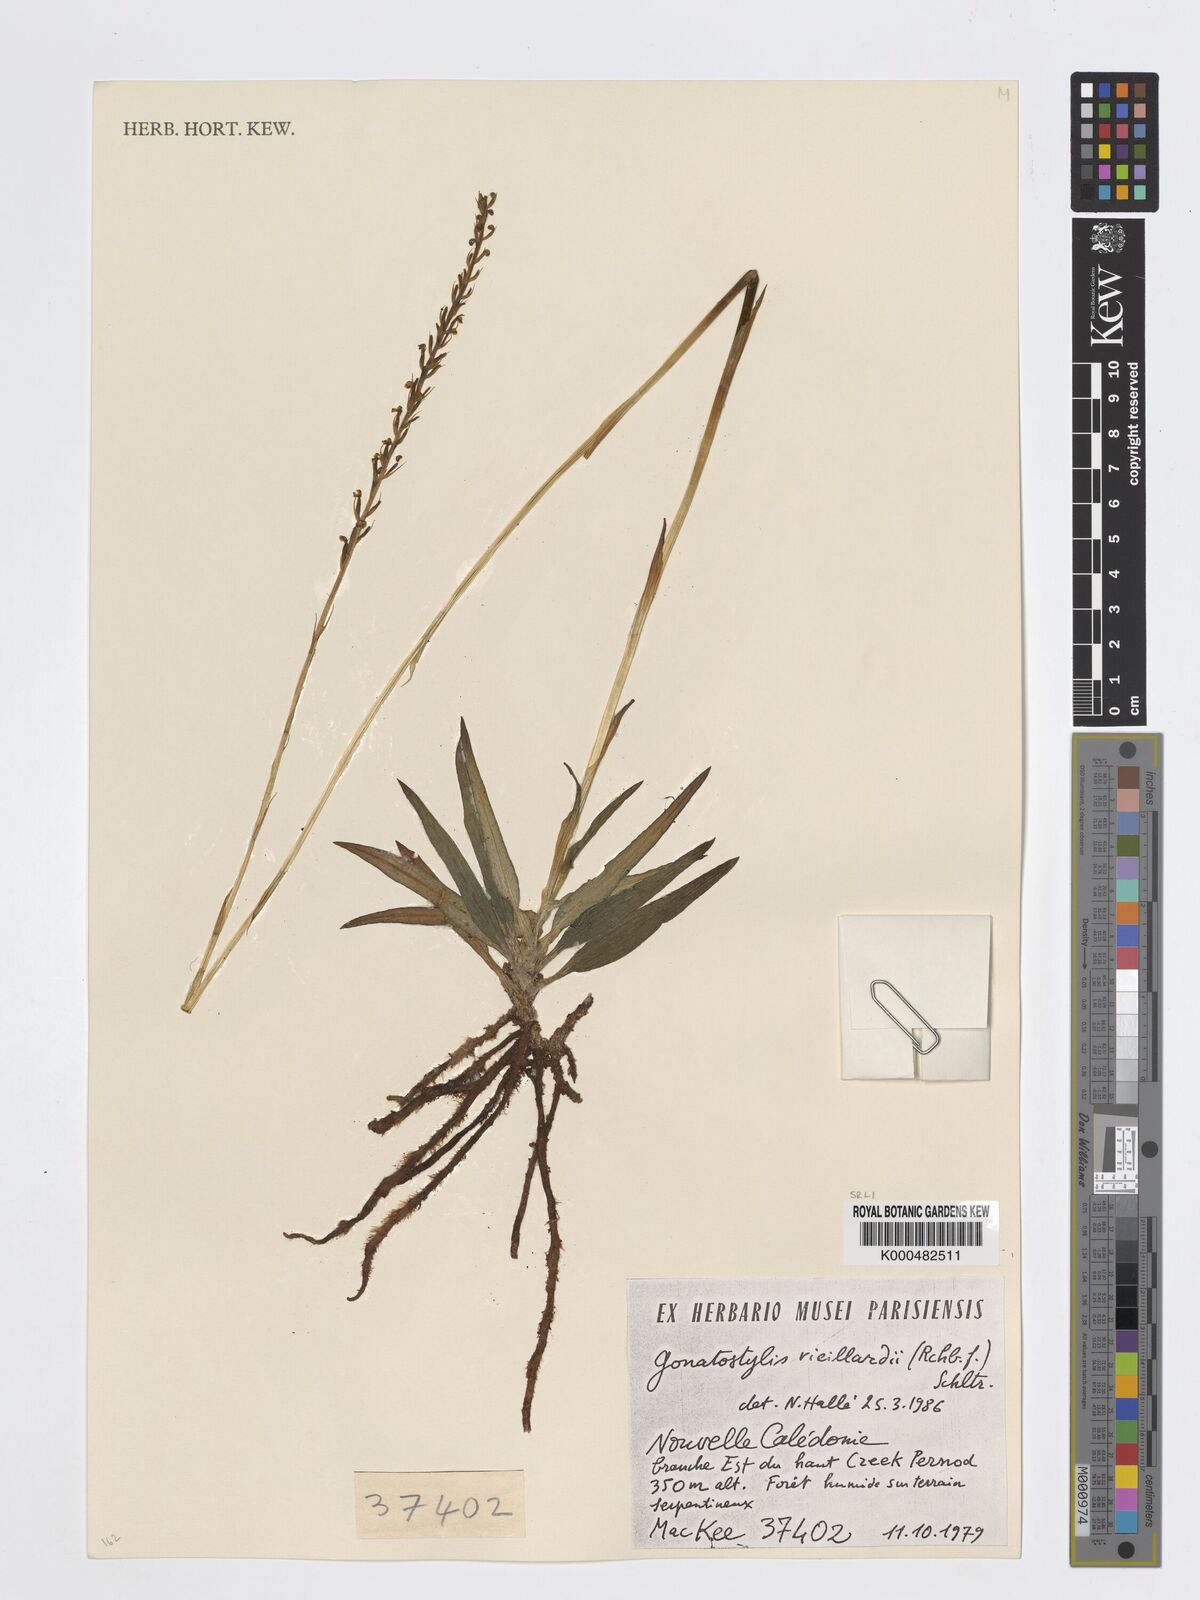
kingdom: Plantae
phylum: Tracheophyta
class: Liliopsida
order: Asparagales
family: Orchidaceae
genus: Gonatostylis
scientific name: Gonatostylis vieillardii
